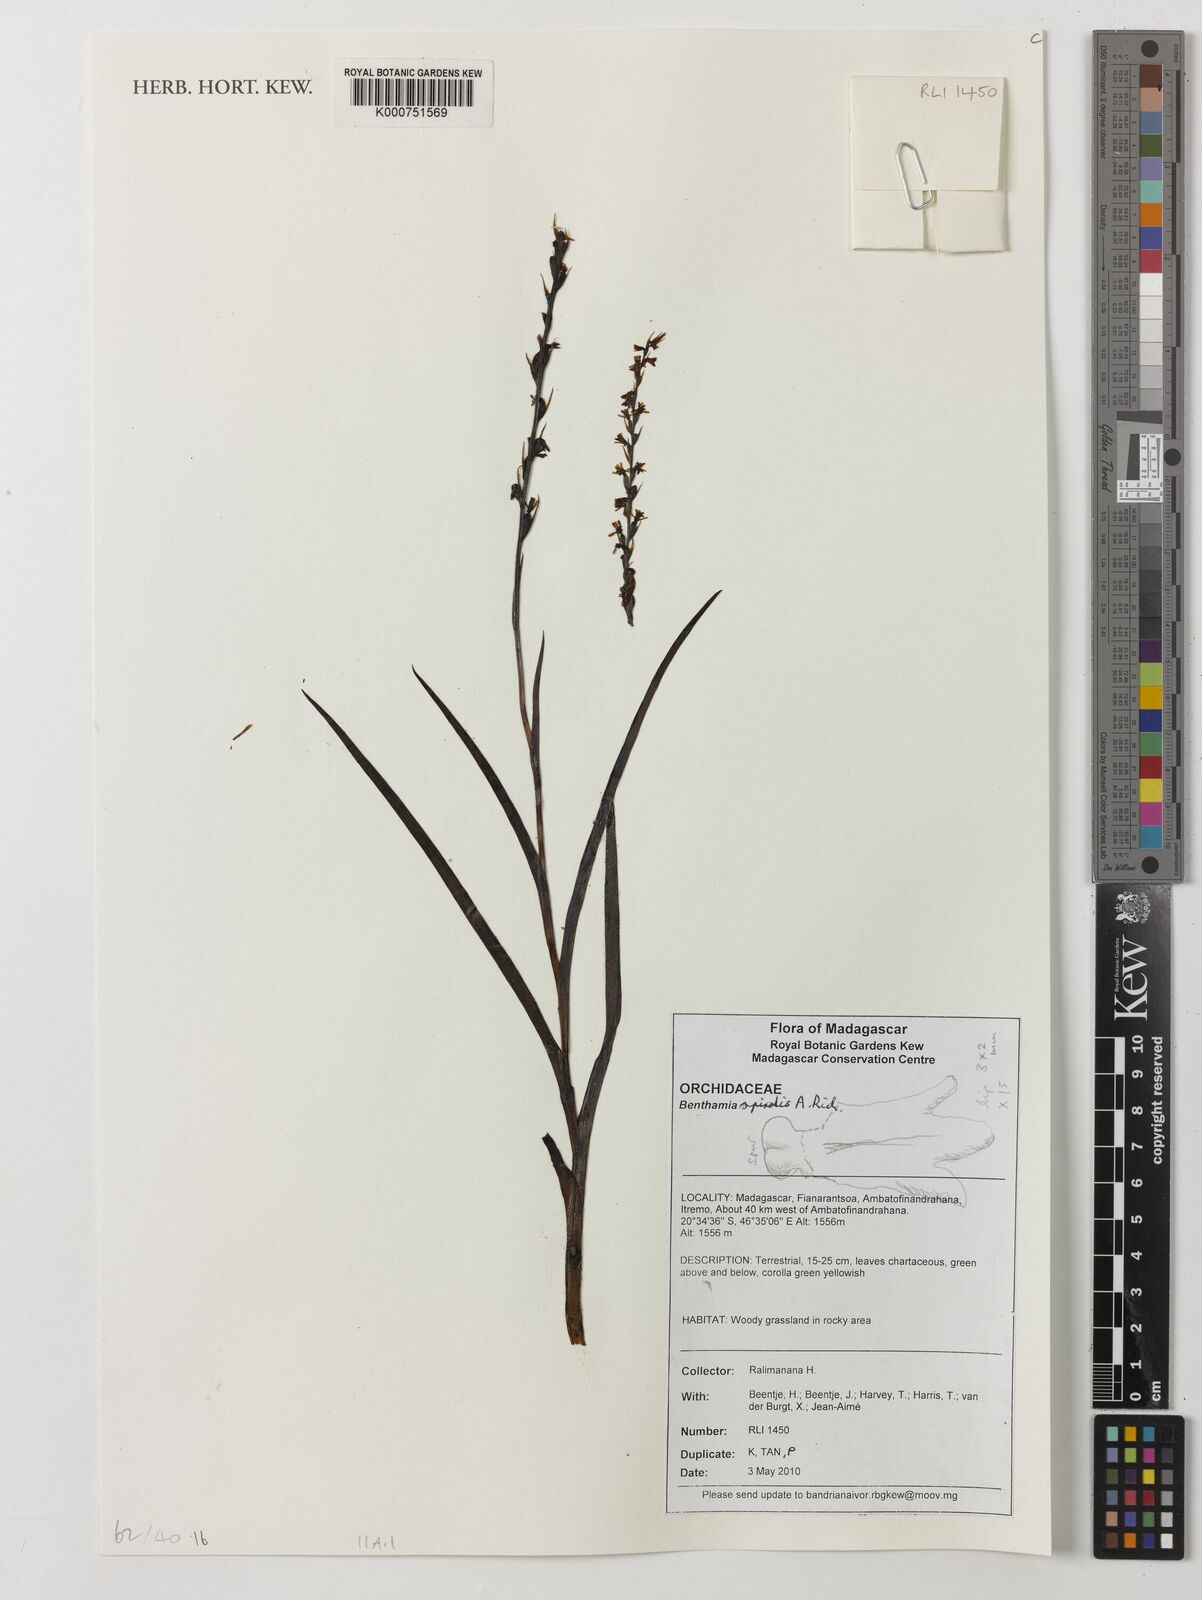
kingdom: Plantae
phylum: Tracheophyta
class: Liliopsida
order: Asparagales
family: Orchidaceae
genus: Benthamia
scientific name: Benthamia africana
